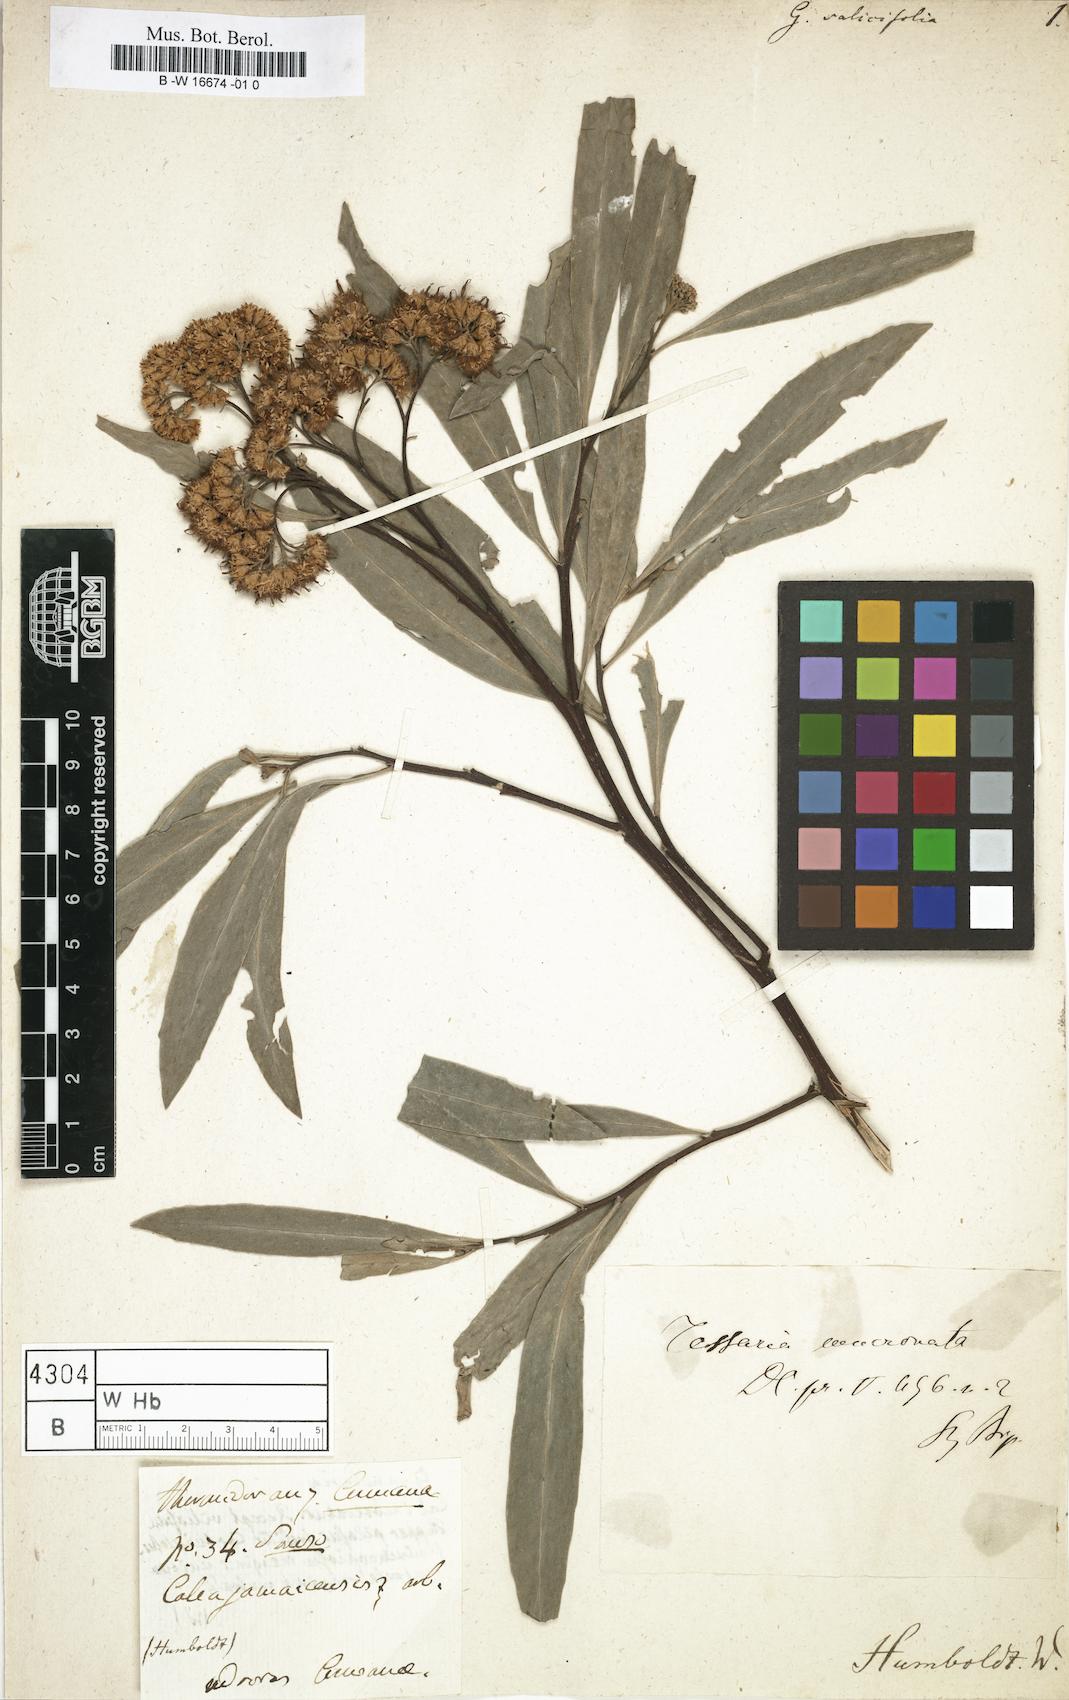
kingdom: Plantae
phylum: Tracheophyta
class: Magnoliopsida
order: Asterales
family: Asteraceae
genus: Tessaria
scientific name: Tessaria integrifolia
